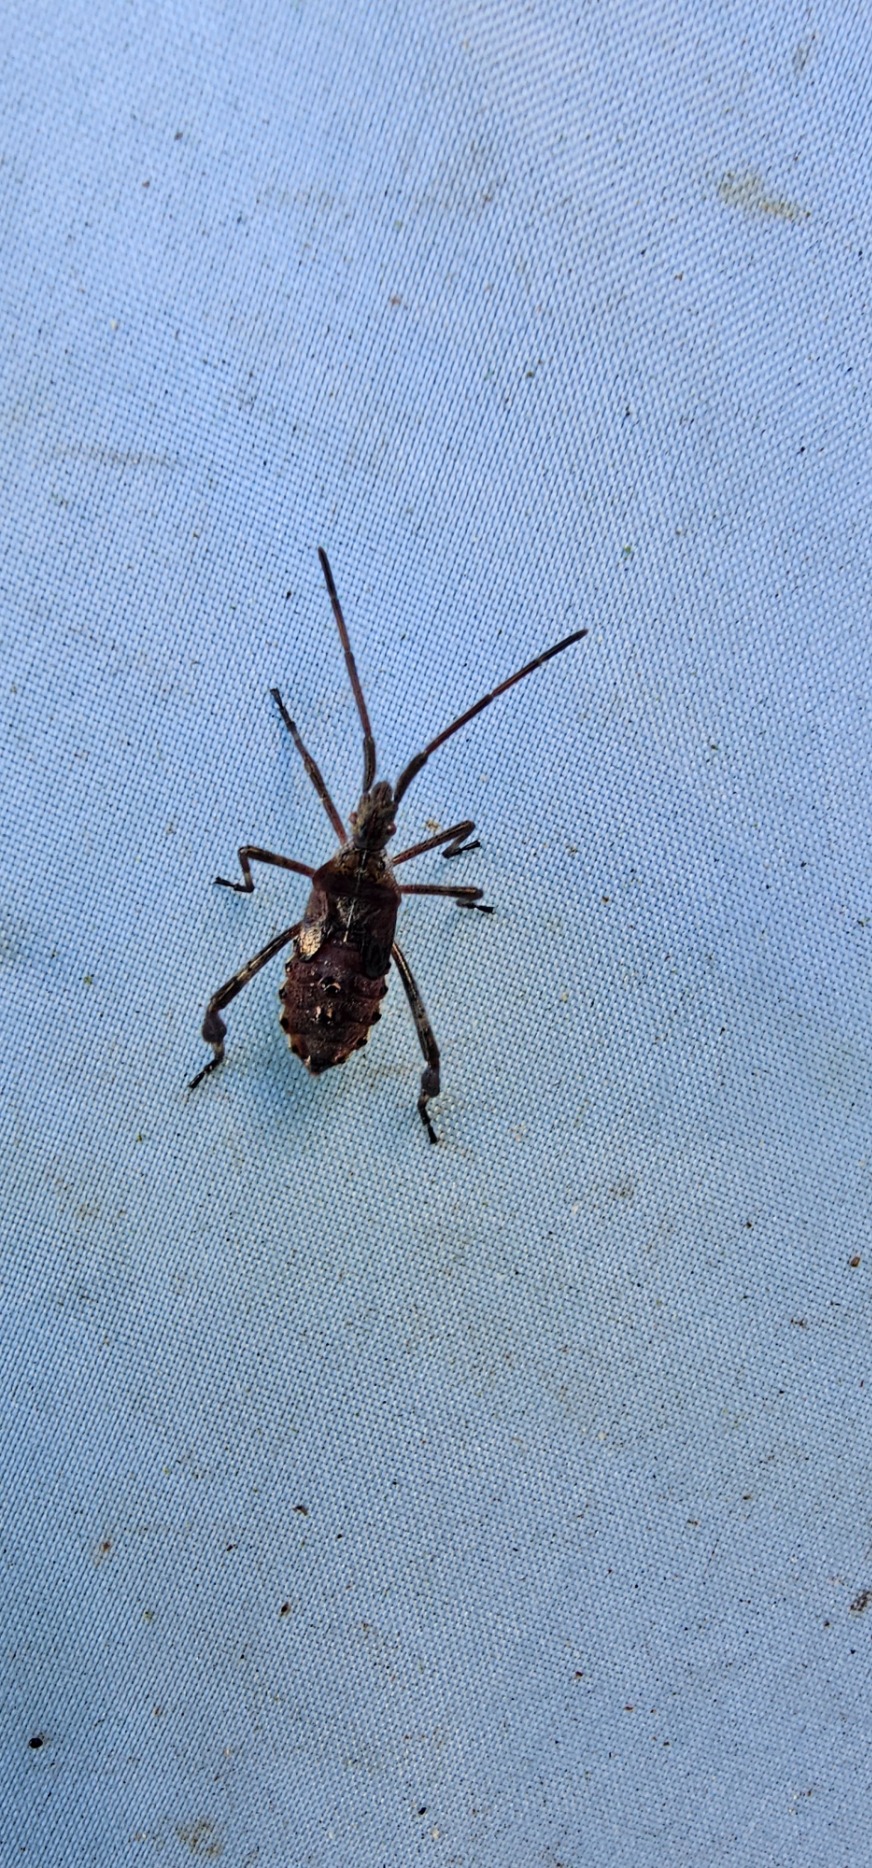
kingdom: Animalia
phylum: Arthropoda
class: Insecta
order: Hemiptera
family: Coreidae
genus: Leptoglossus
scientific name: Leptoglossus occidentalis
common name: Amerikansk fyrretæge
